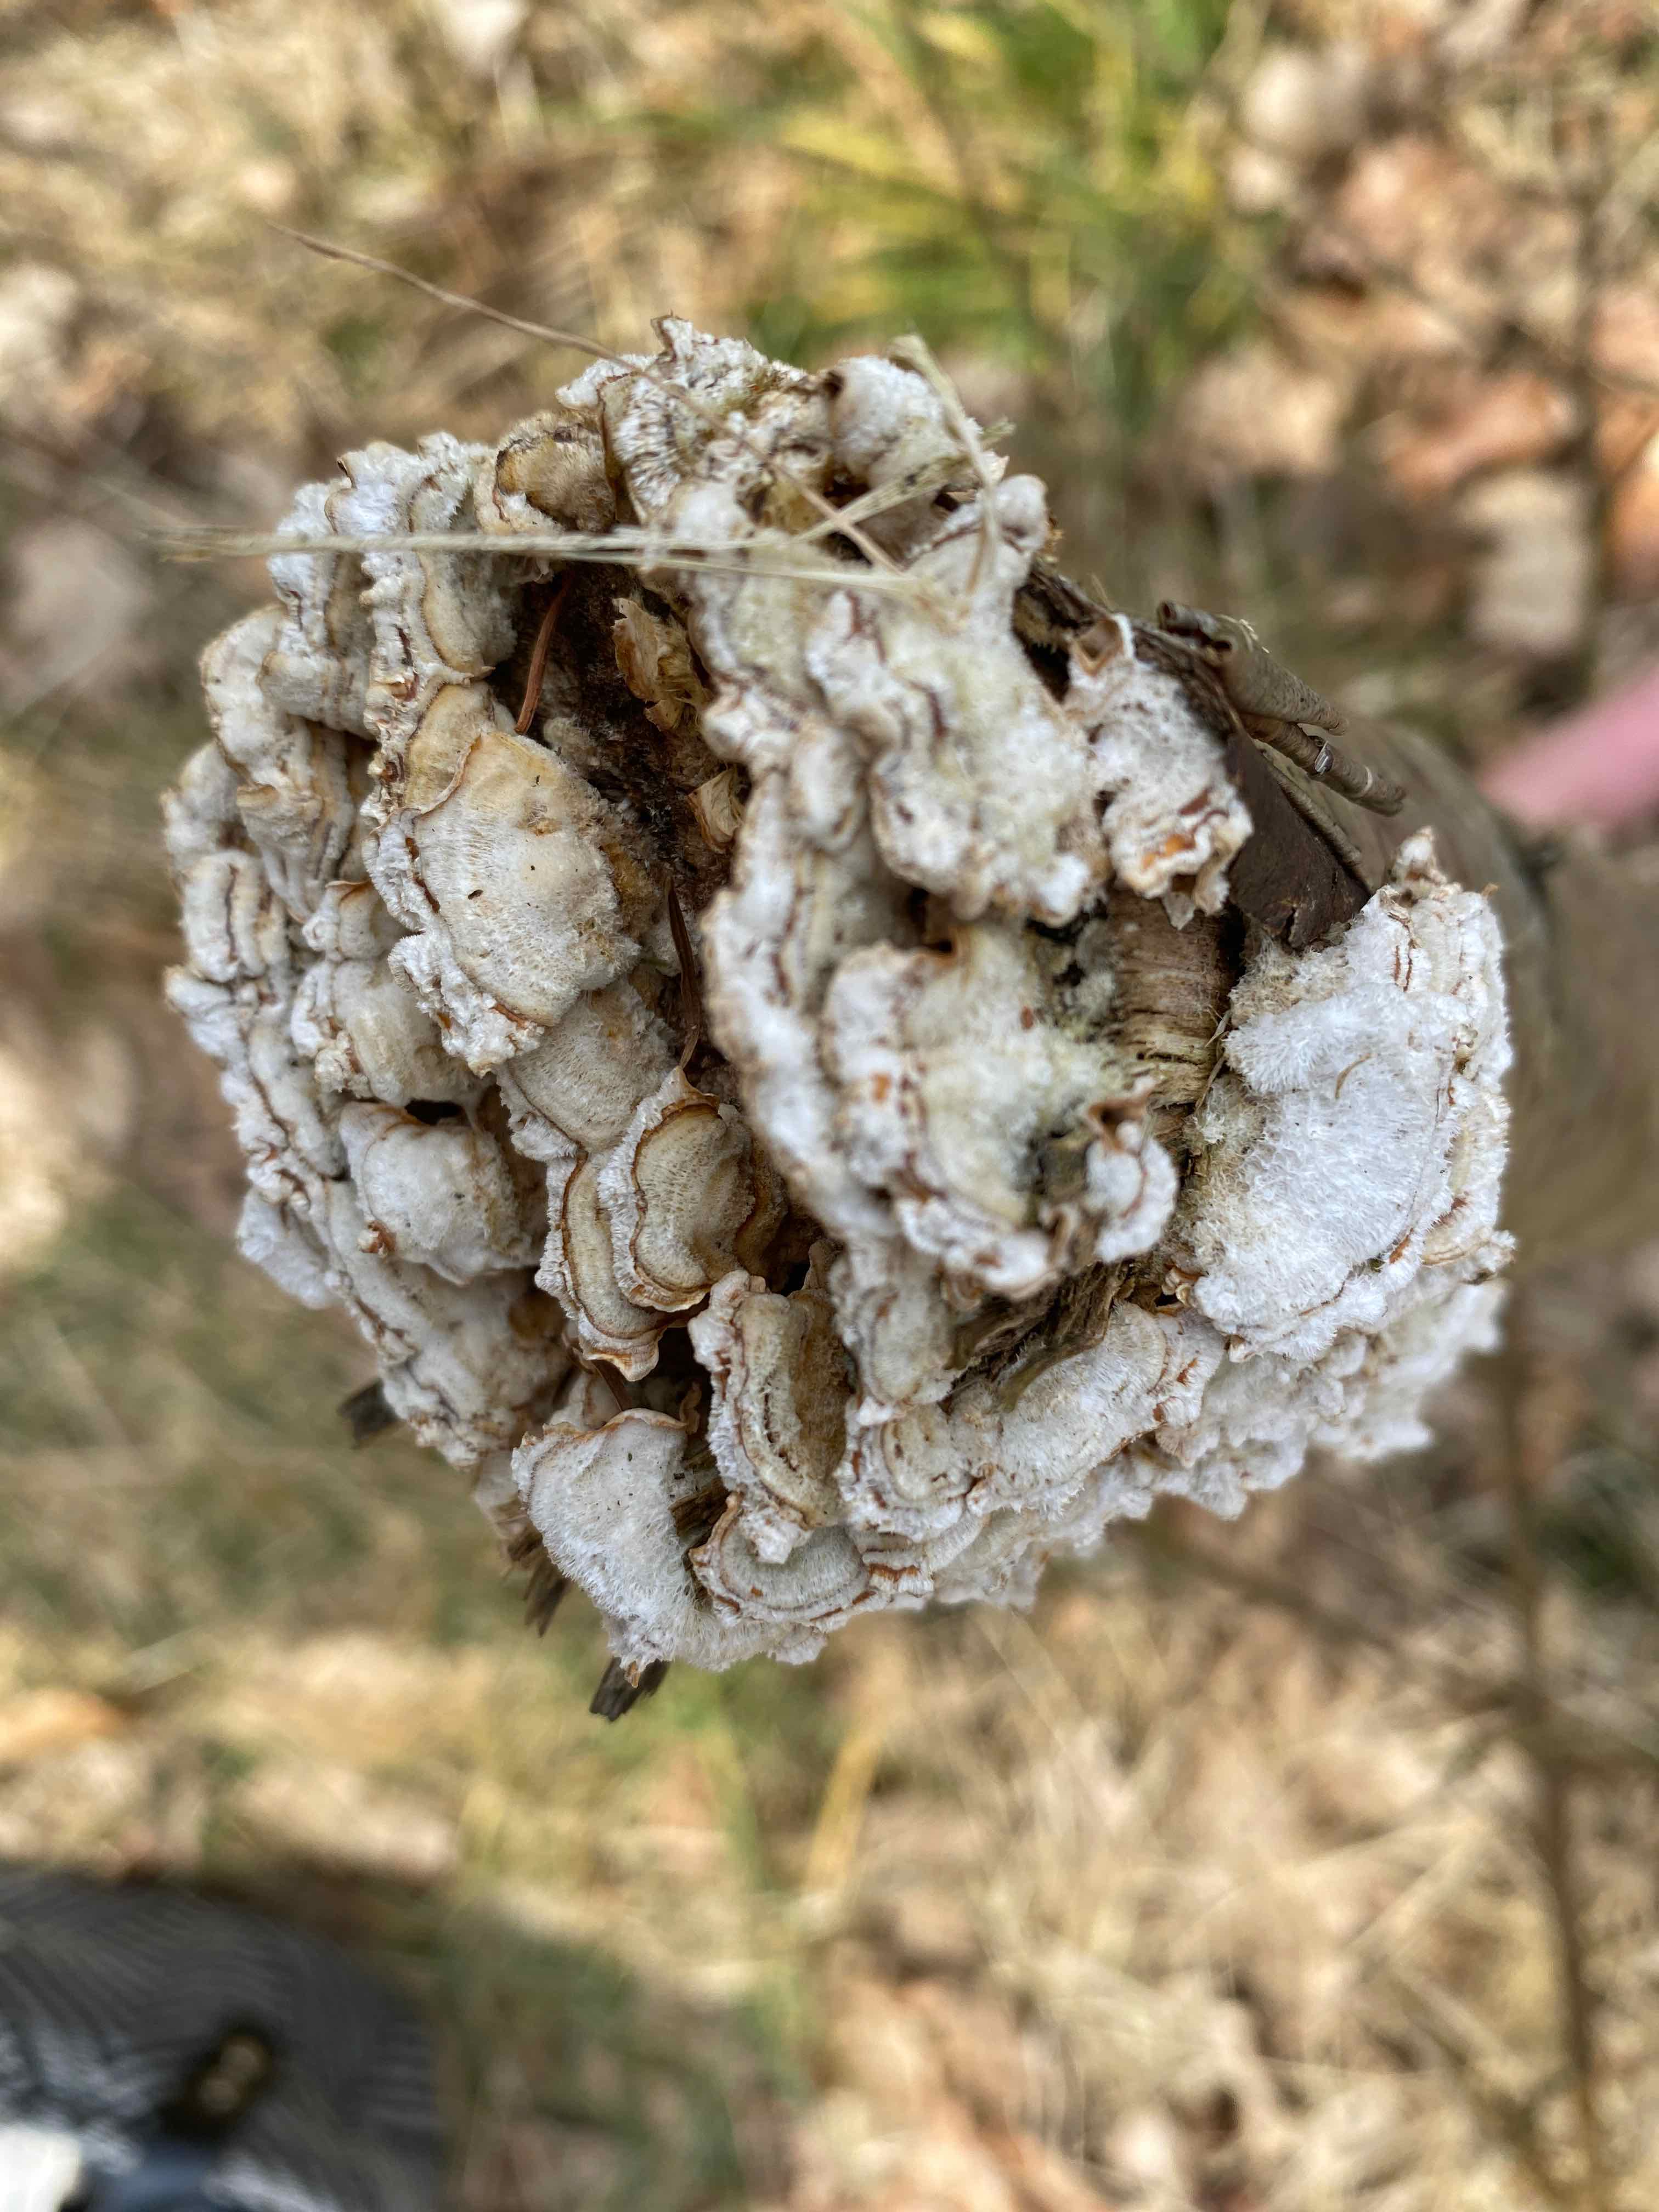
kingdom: Fungi
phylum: Basidiomycota
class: Agaricomycetes
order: Russulales
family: Stereaceae
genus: Stereum
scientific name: Stereum hirsutum
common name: håret lædersvamp
